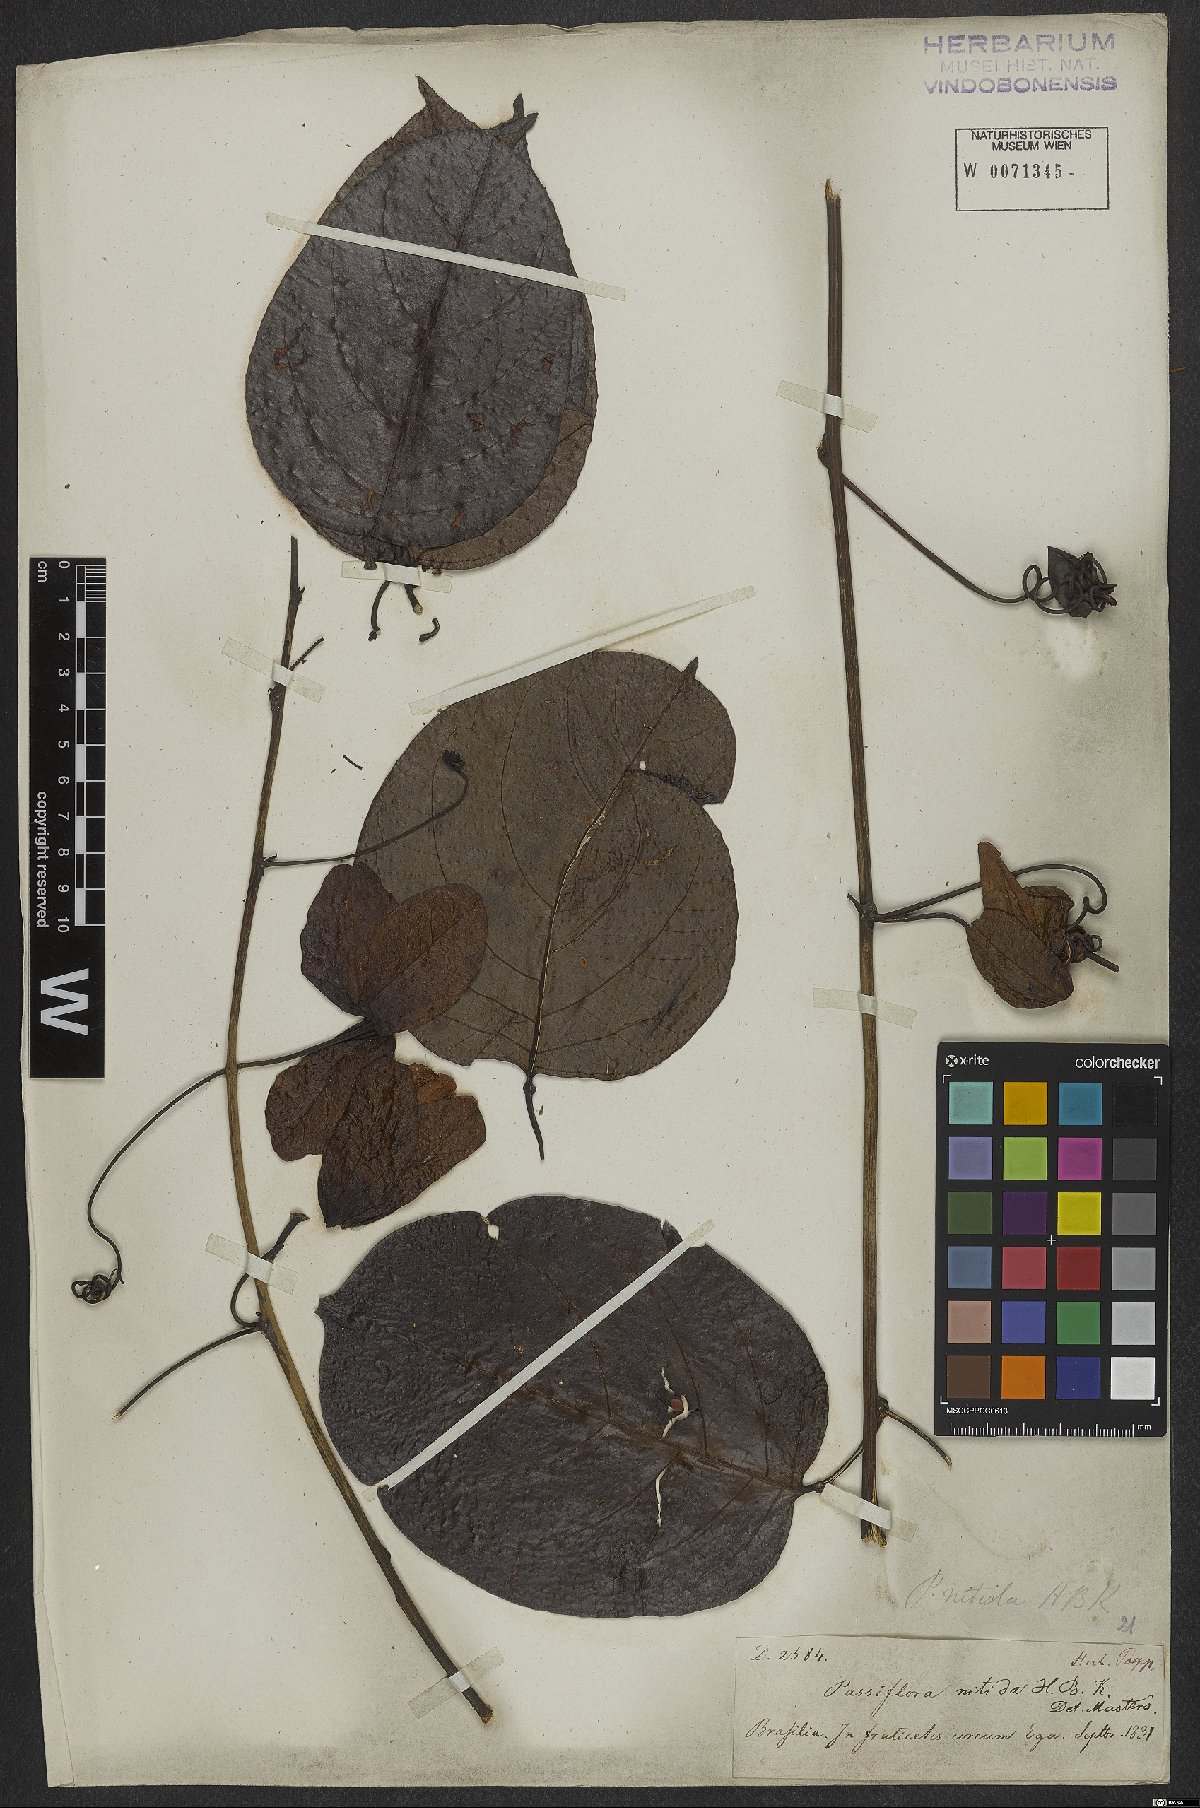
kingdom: Plantae
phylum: Tracheophyta
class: Magnoliopsida
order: Malpighiales
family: Passifloraceae
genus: Passiflora
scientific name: Passiflora nitida
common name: Bell-apple
